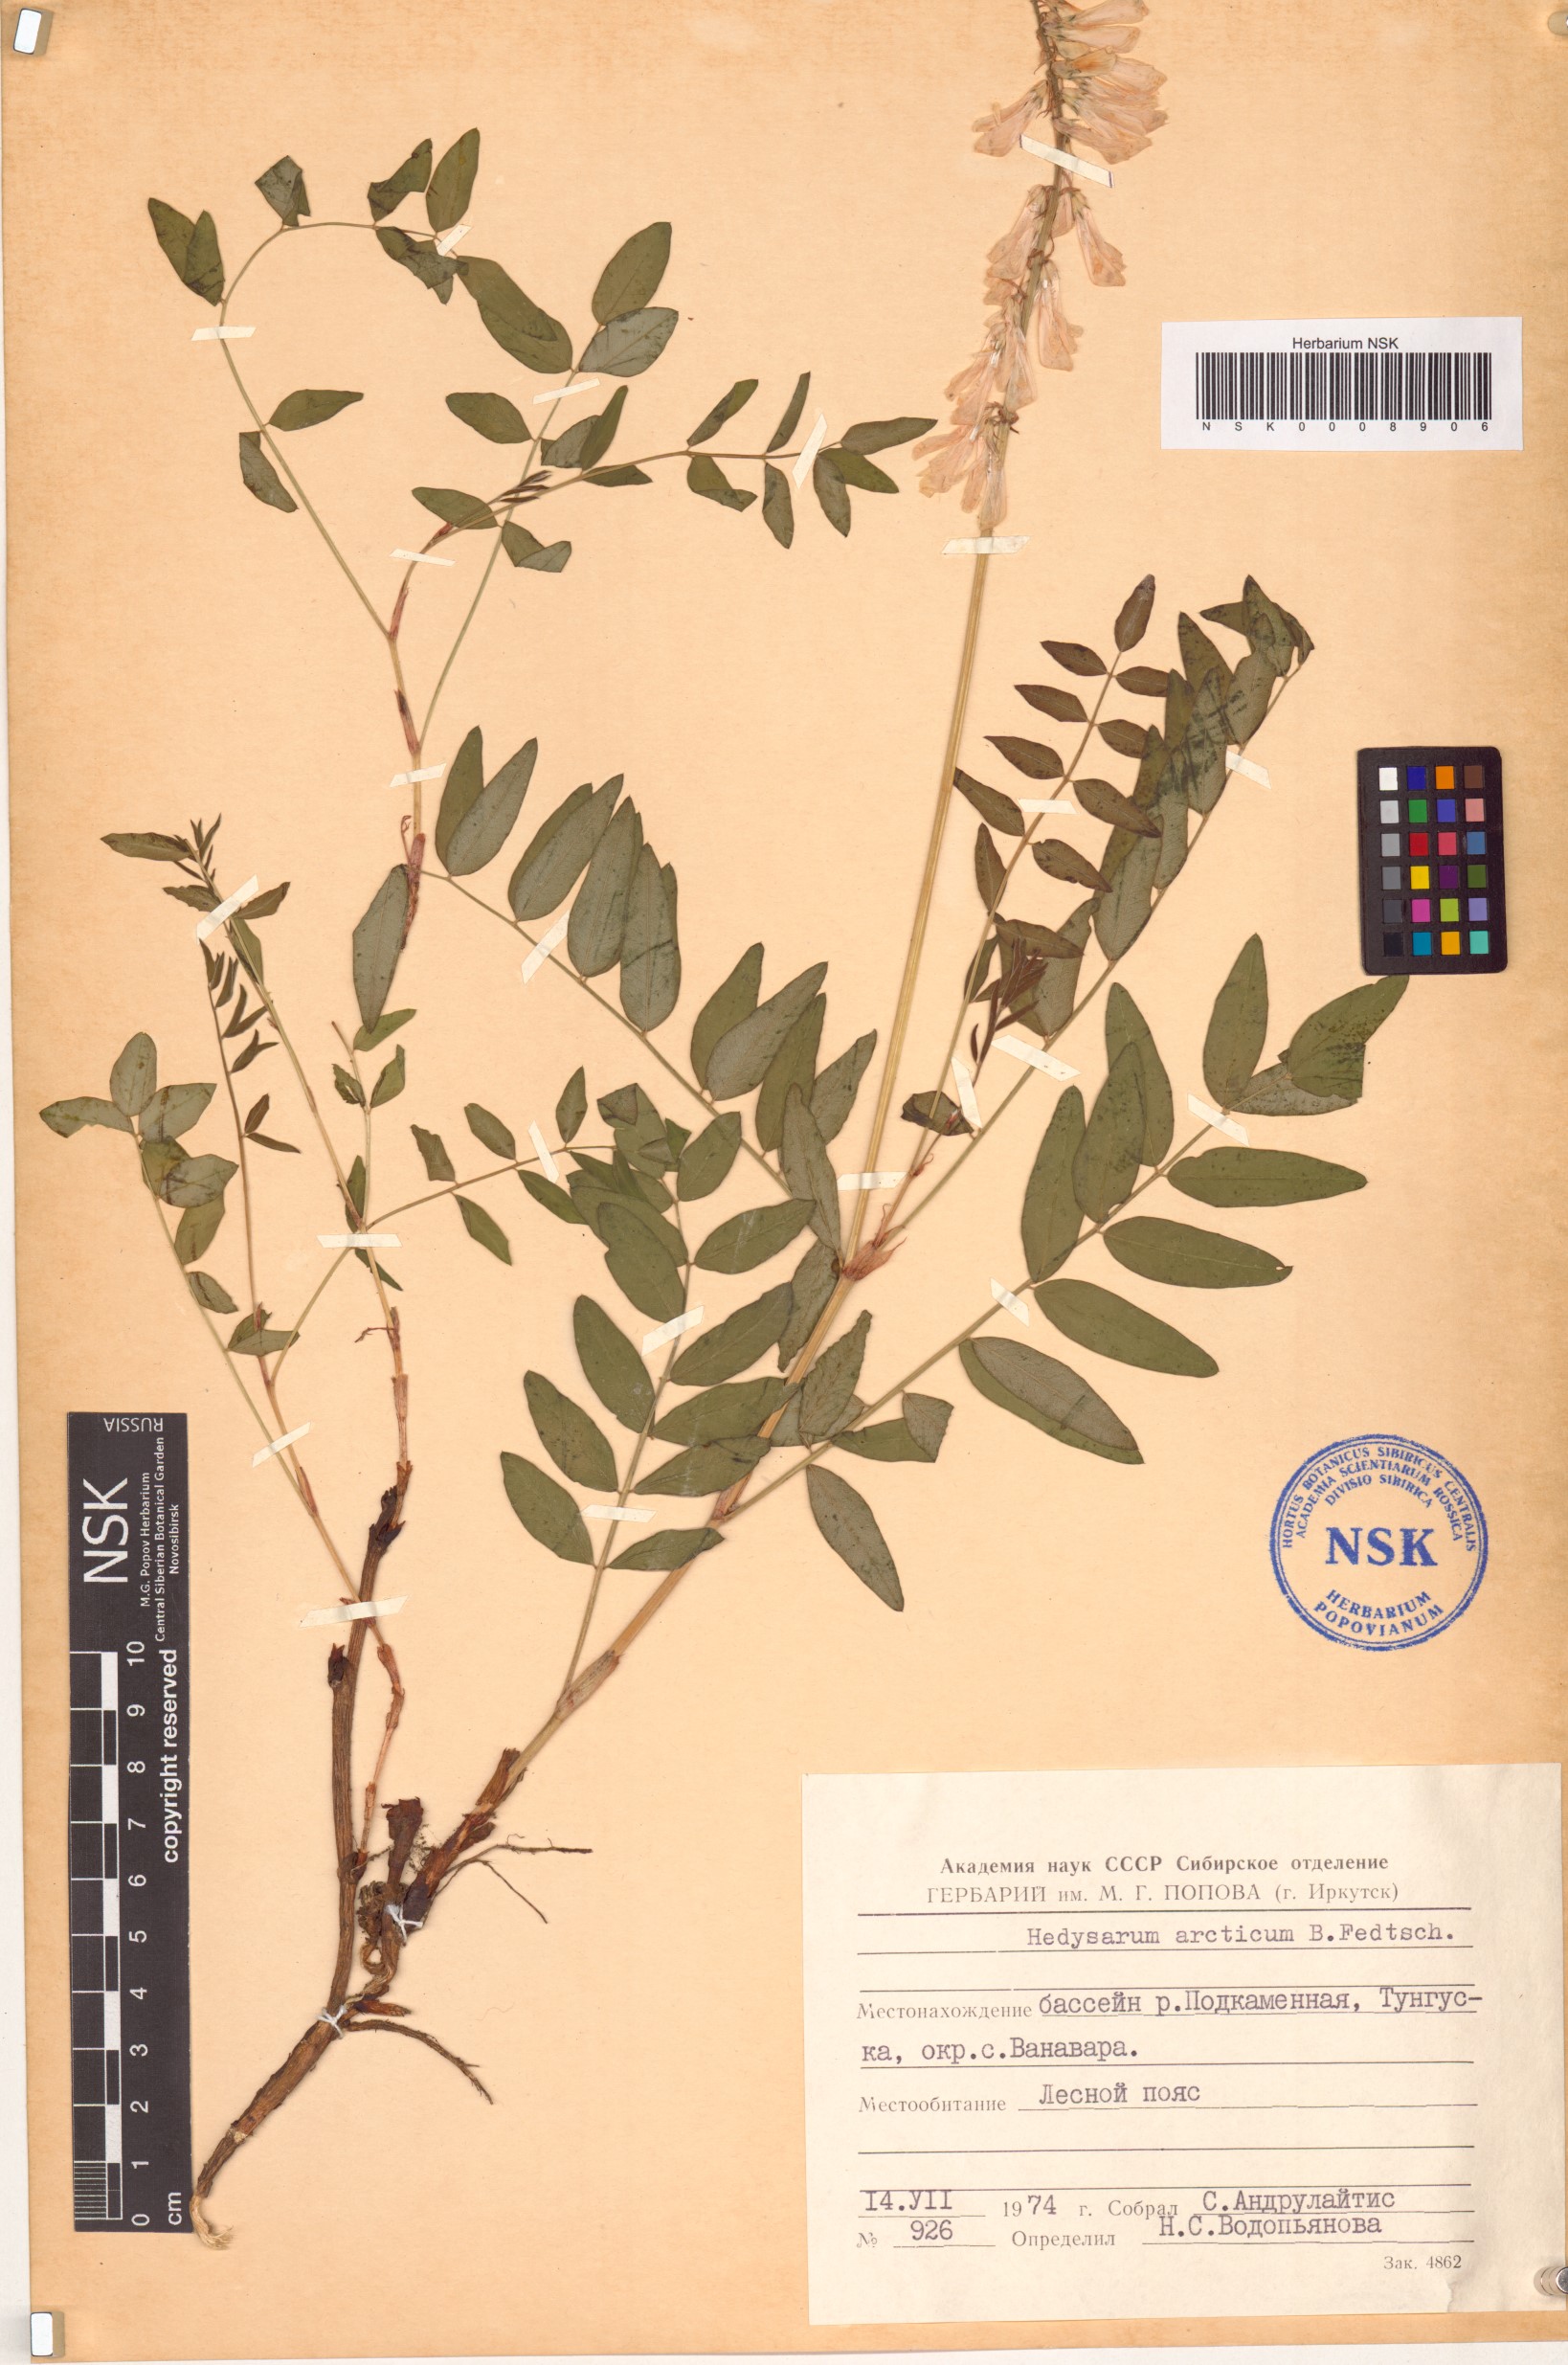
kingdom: Plantae
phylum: Tracheophyta
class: Magnoliopsida
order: Fabales
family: Fabaceae
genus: Hedysarum
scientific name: Hedysarum hedysaroides
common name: Alpine french-honeysuckle
